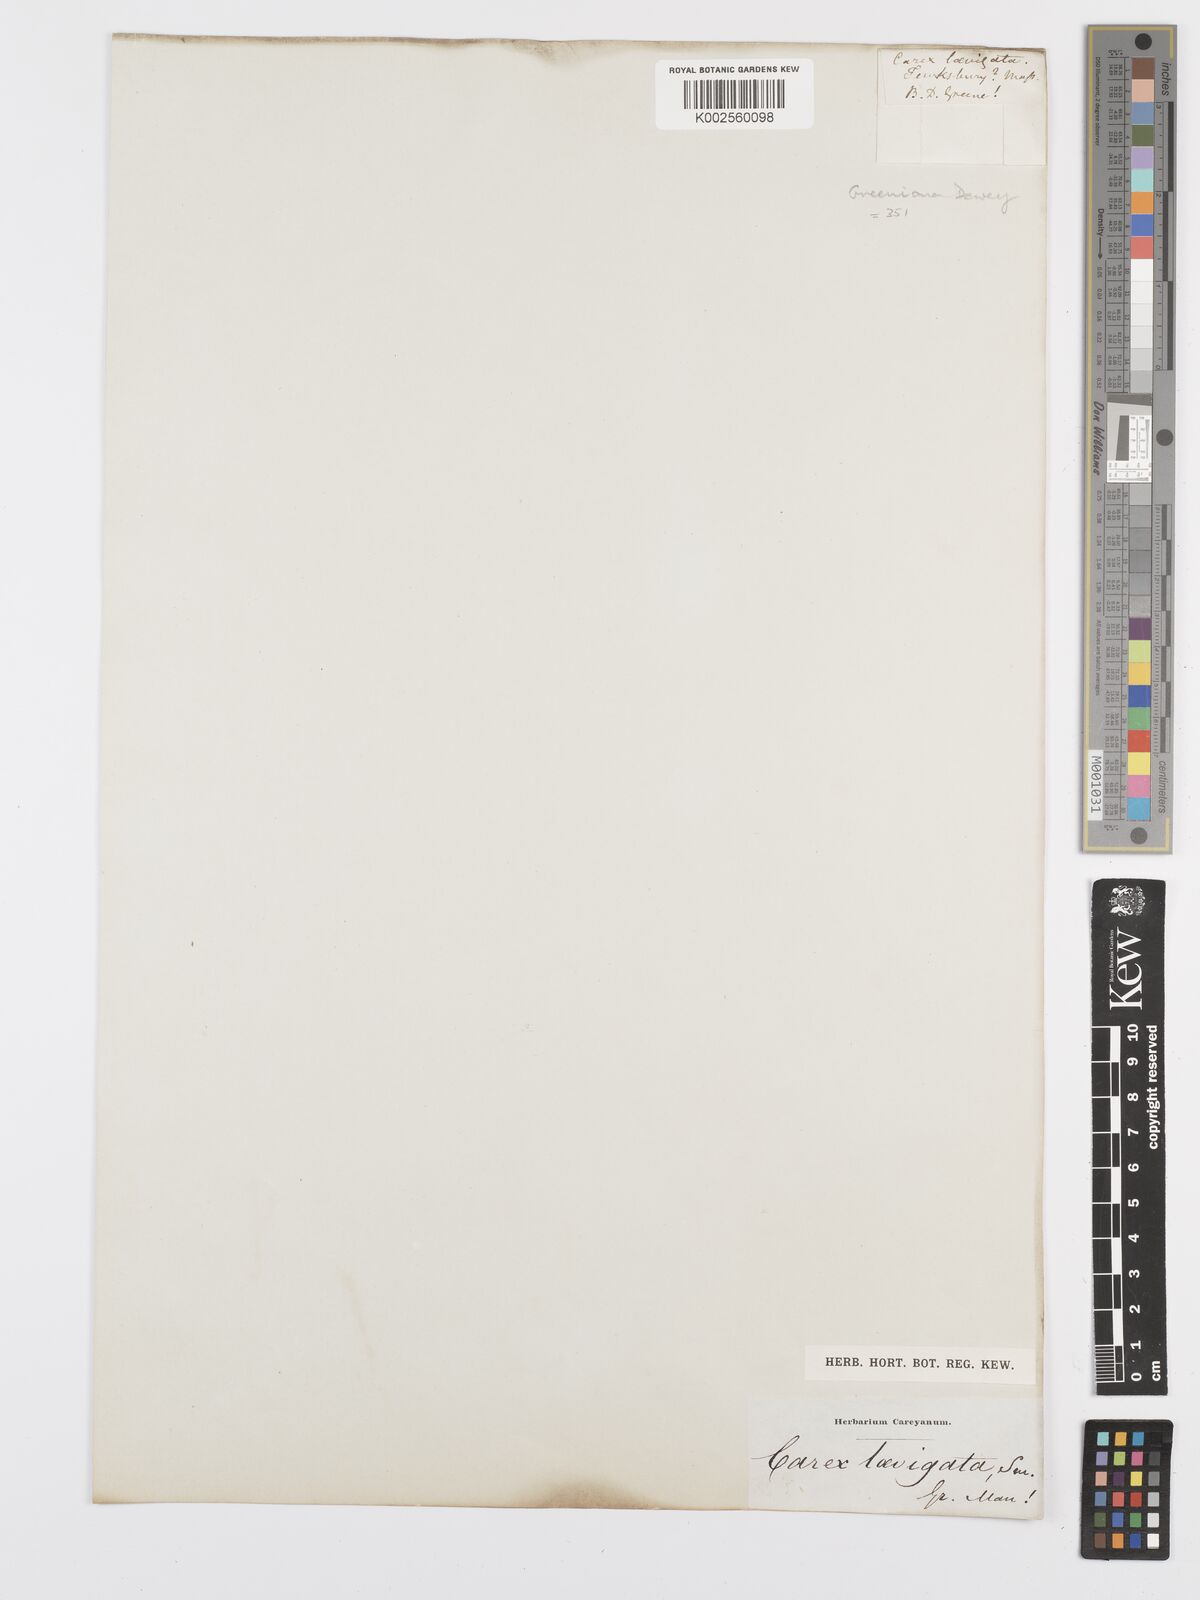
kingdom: Plantae
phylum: Tracheophyta
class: Liliopsida
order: Poales
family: Cyperaceae
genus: Carex
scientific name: Carex hostiana
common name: Tawny sedge
